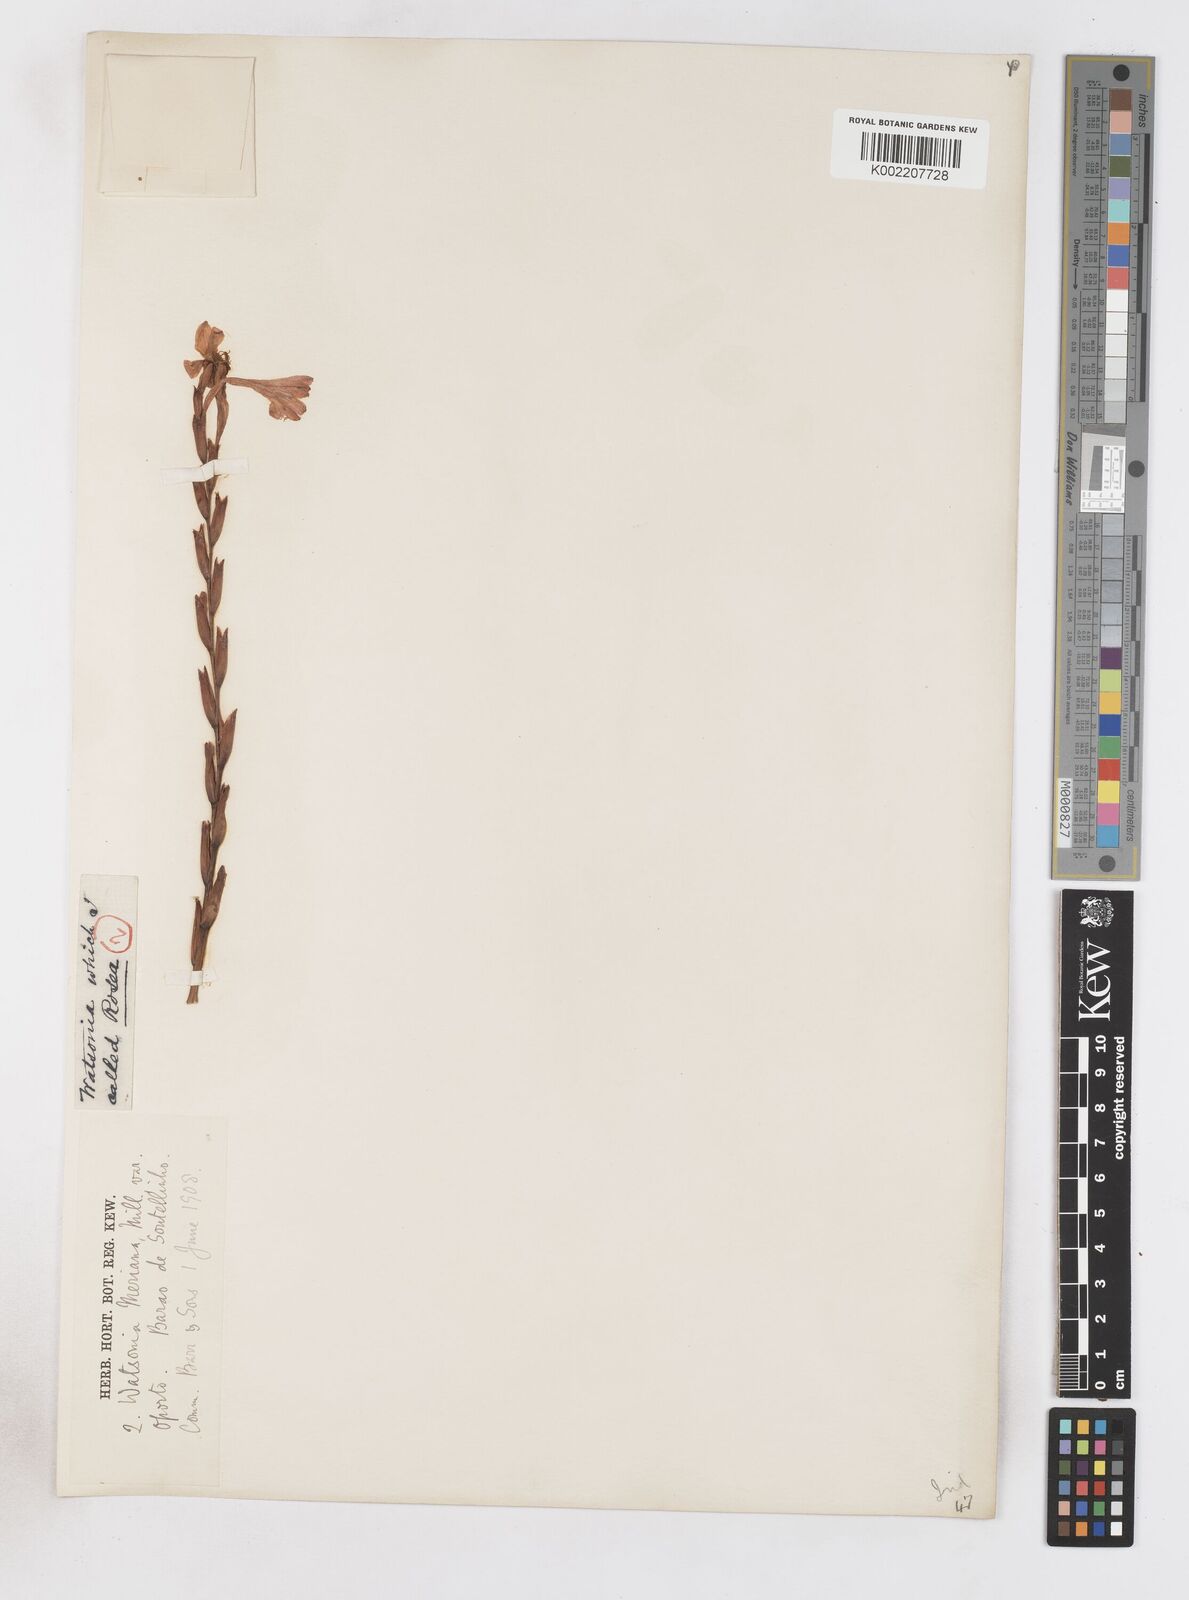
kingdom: Plantae
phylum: Tracheophyta
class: Liliopsida
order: Asparagales
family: Iridaceae
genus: Watsonia
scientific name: Watsonia
